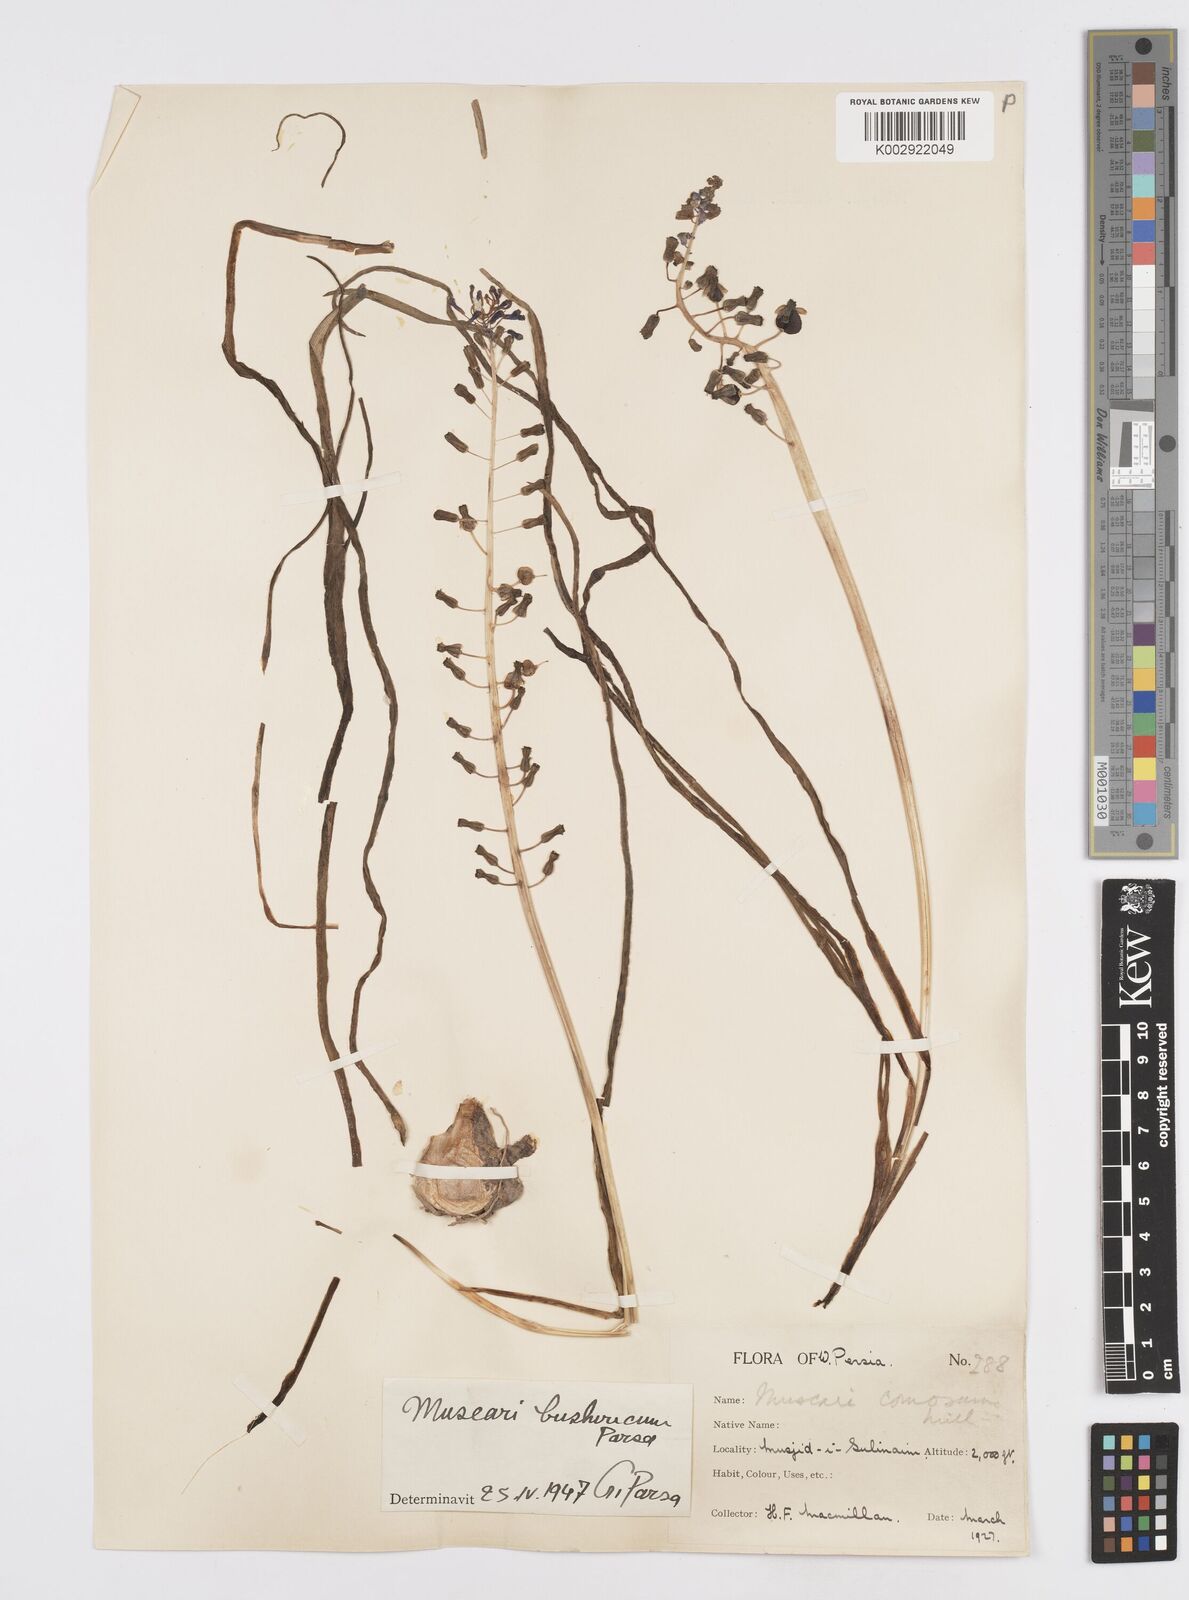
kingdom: Animalia
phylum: Mollusca
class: Cephalopoda
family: Neocomitidae
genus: Leopoldia
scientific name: Leopoldia
